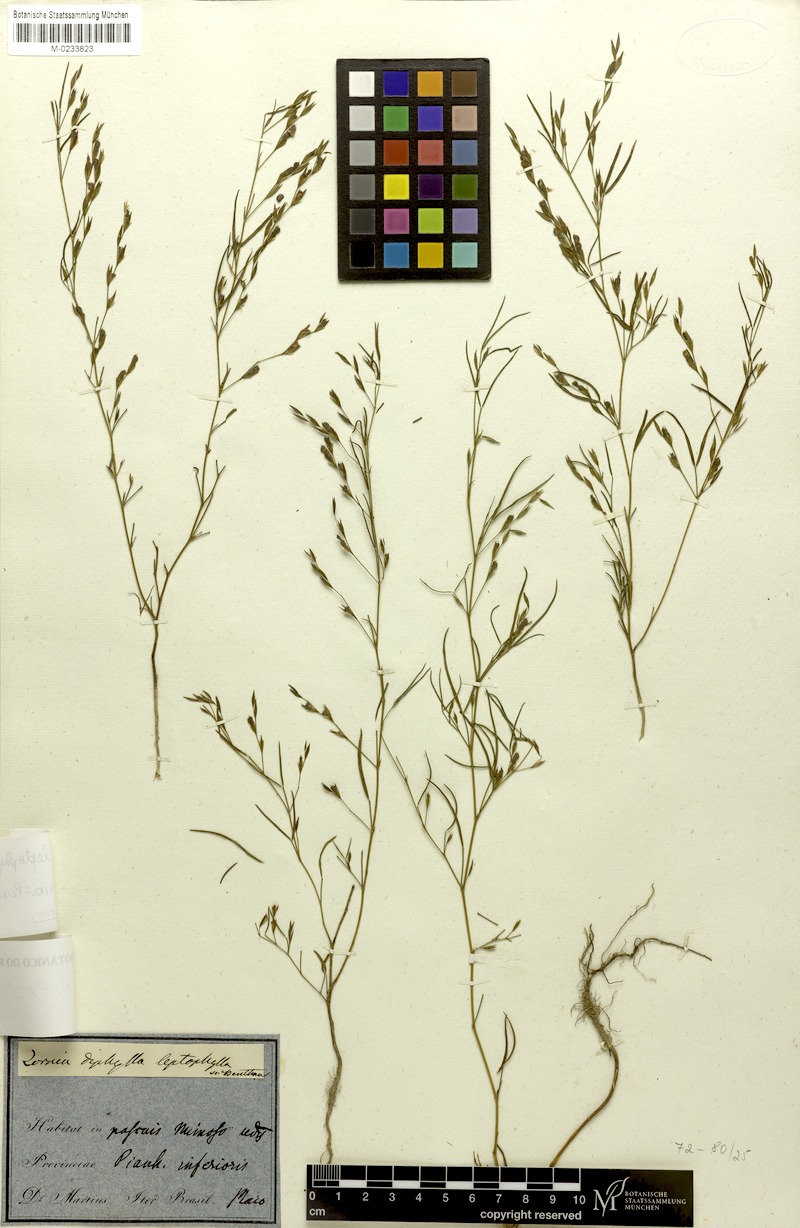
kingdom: Plantae
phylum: Tracheophyta
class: Magnoliopsida
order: Fabales
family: Fabaceae
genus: Zornia
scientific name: Zornia leptophylla
